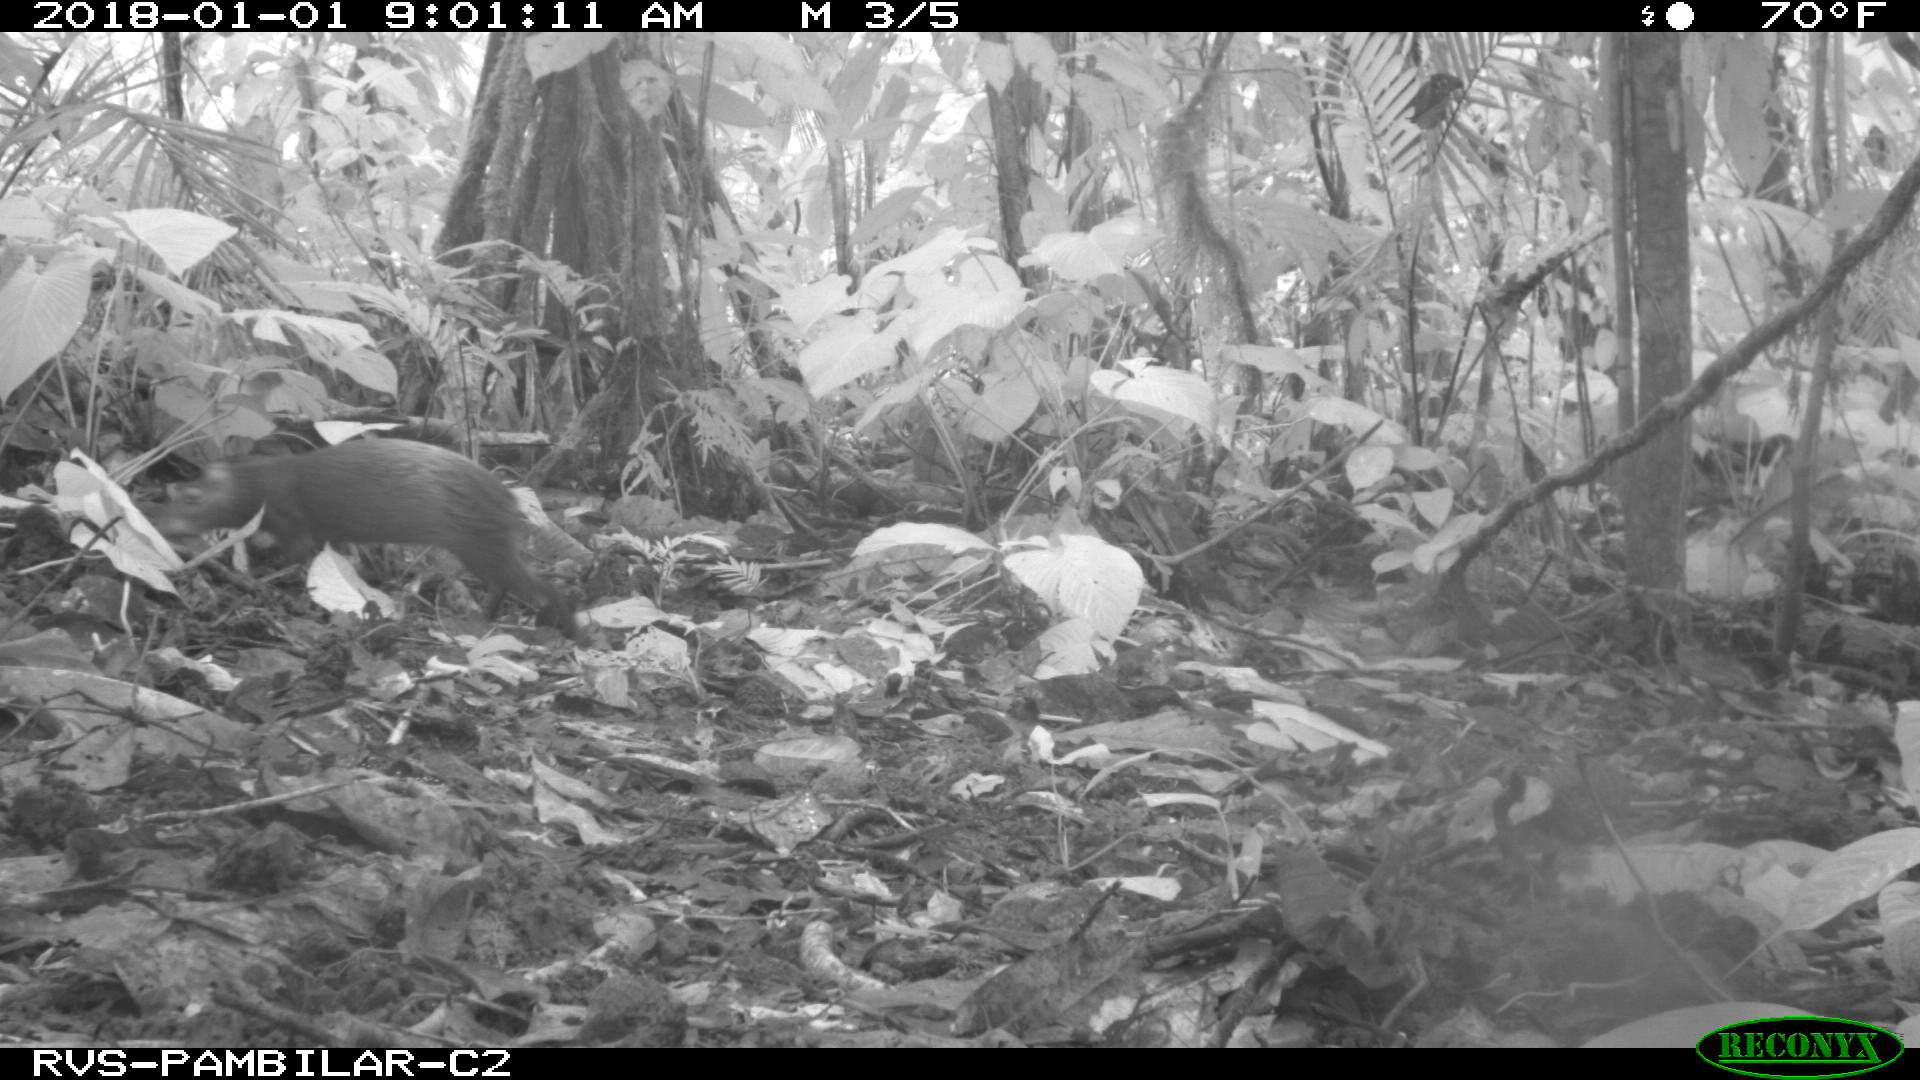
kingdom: Animalia
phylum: Chordata
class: Mammalia
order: Rodentia
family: Dasyproctidae
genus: Dasyprocta
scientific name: Dasyprocta punctata
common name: Central american agouti
